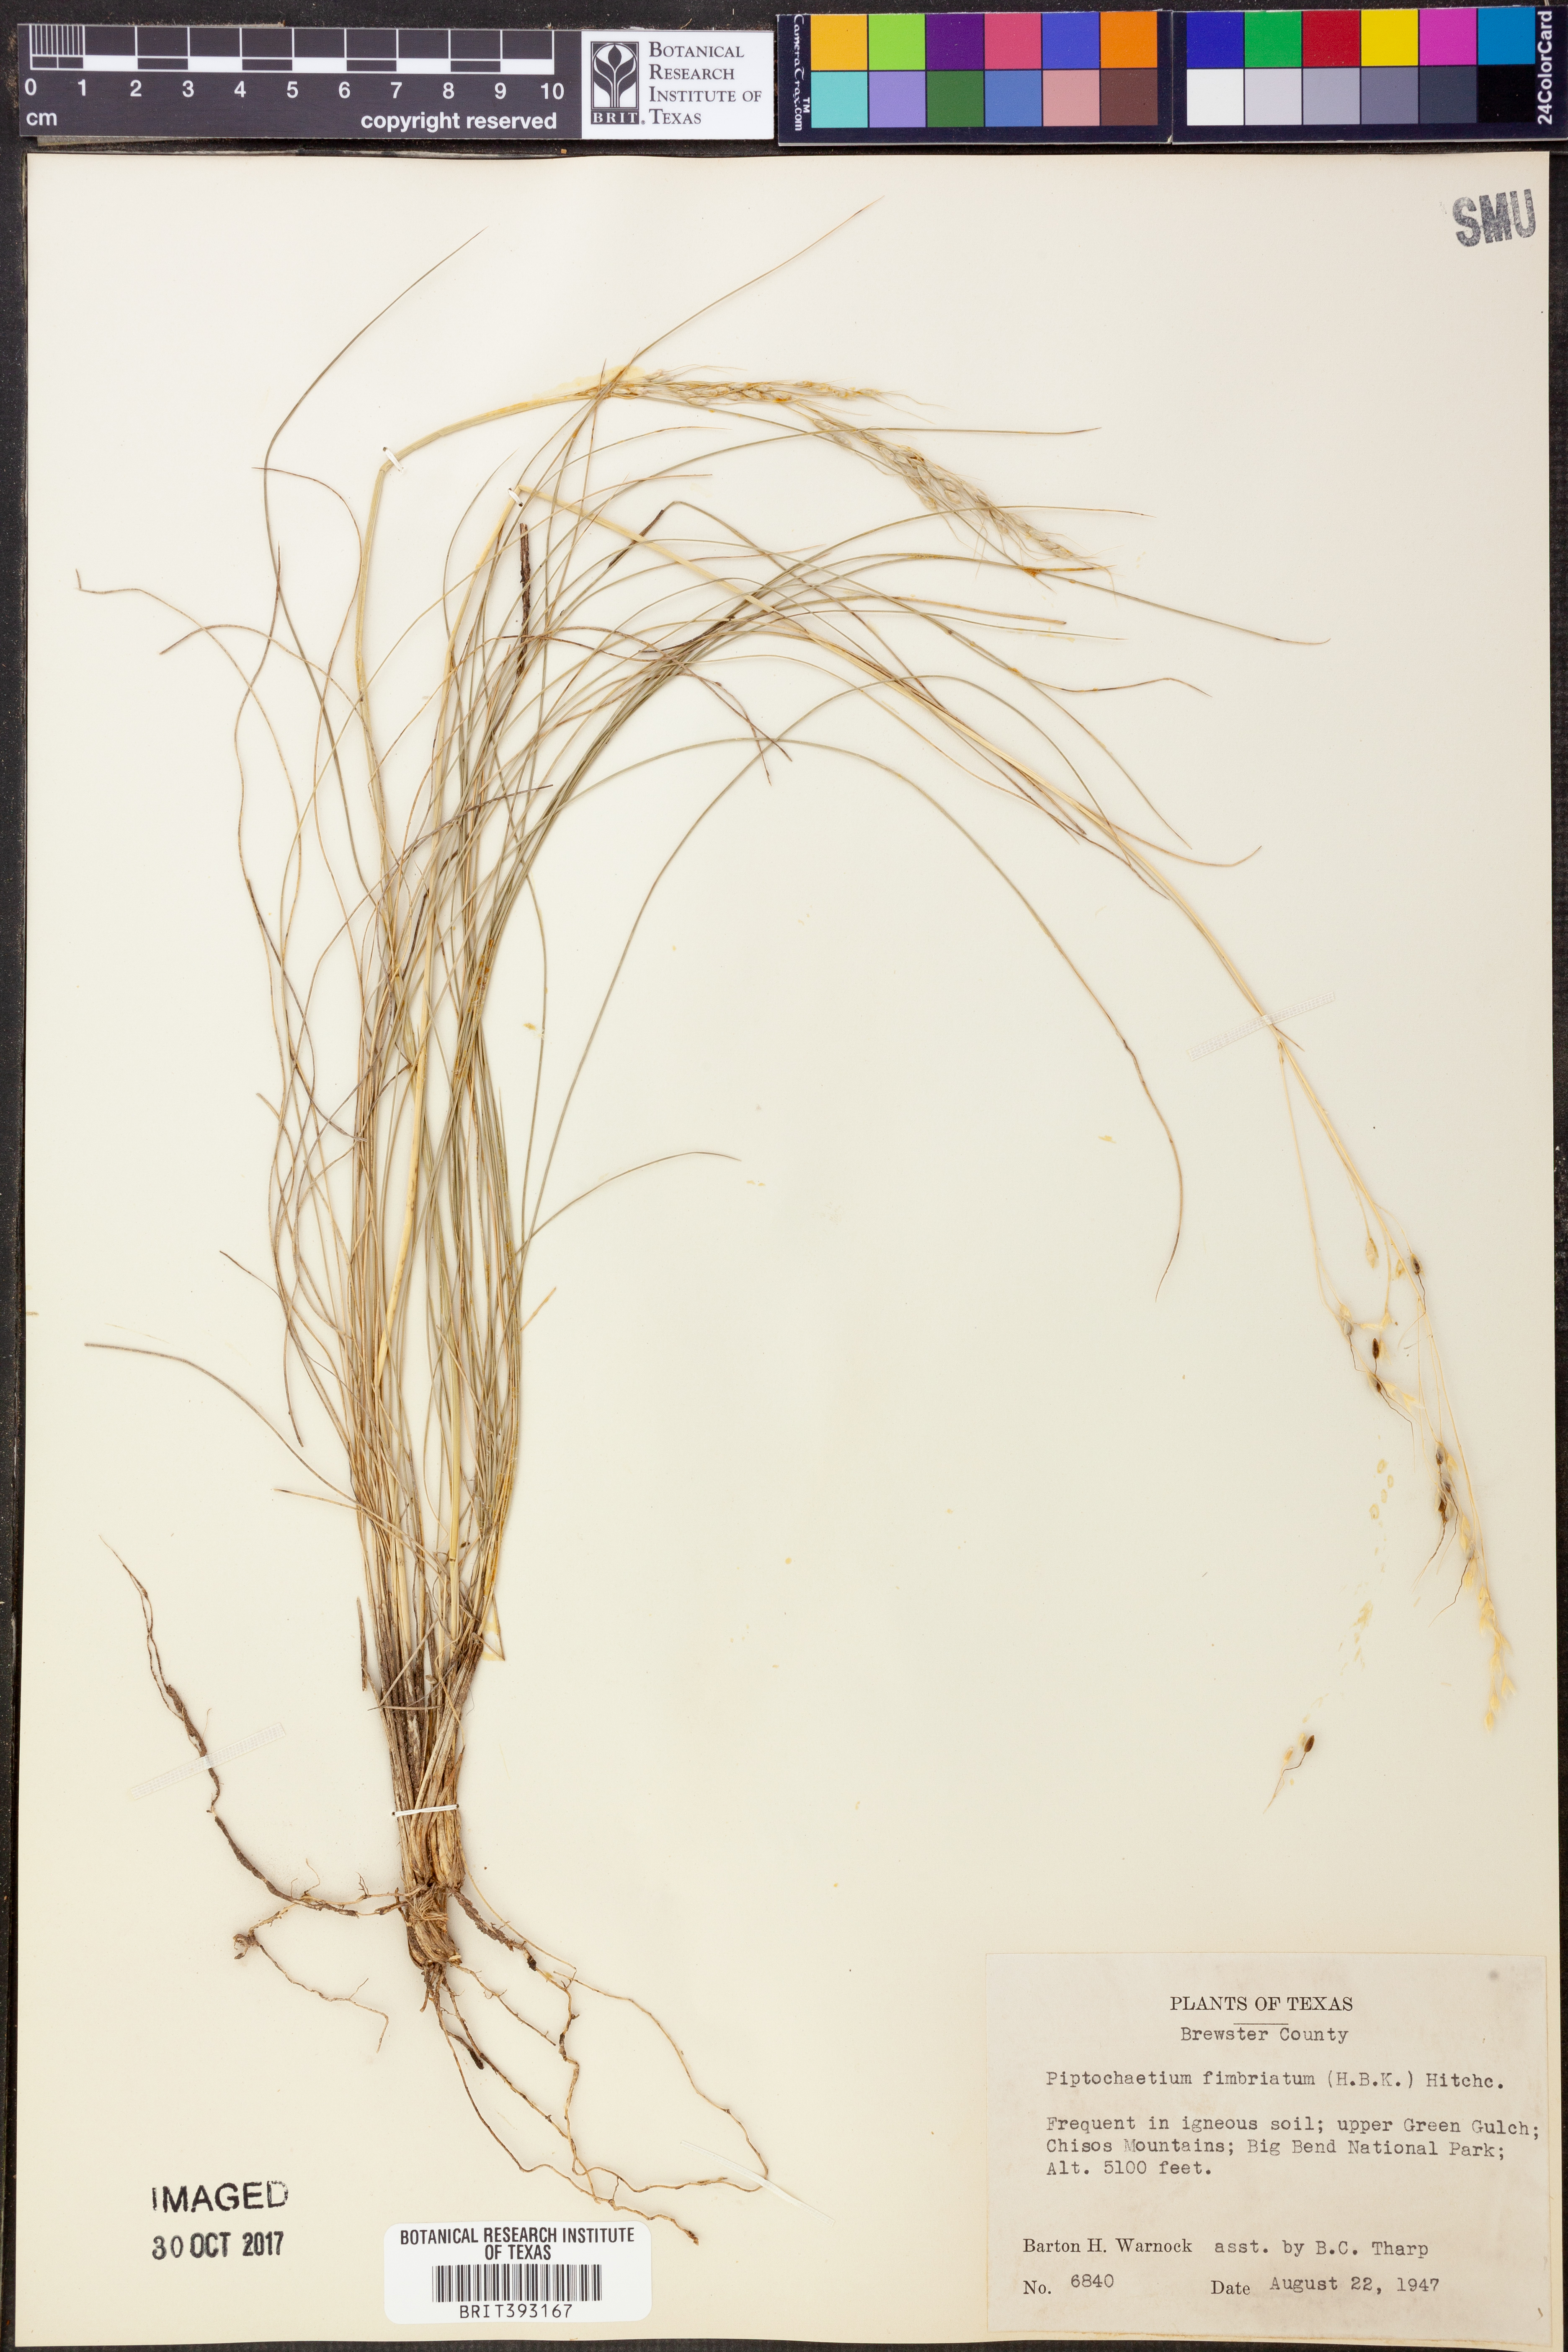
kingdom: Plantae
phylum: Tracheophyta
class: Liliopsida
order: Poales
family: Poaceae
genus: Piptochaetium
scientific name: Piptochaetium fimbriatum
